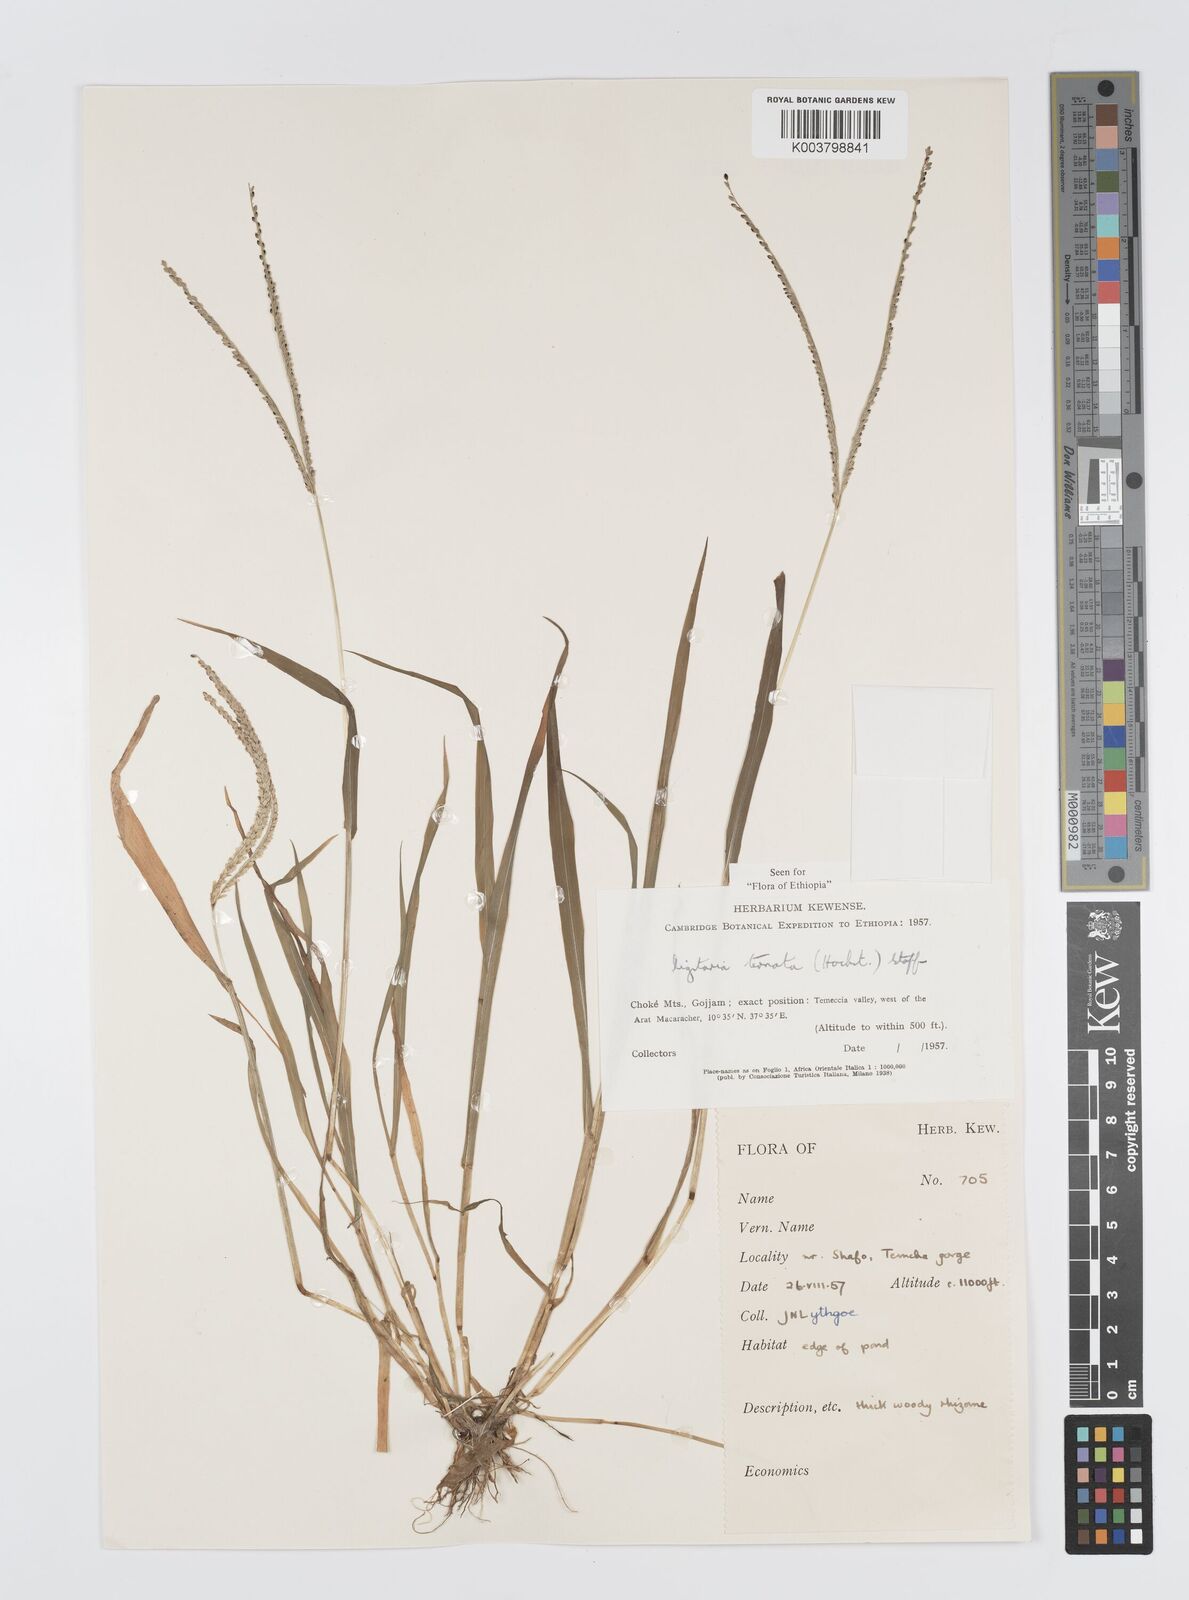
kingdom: Plantae
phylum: Tracheophyta
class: Liliopsida
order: Poales
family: Poaceae
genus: Digitaria
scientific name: Digitaria ternata
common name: Blackseed crabgrass
